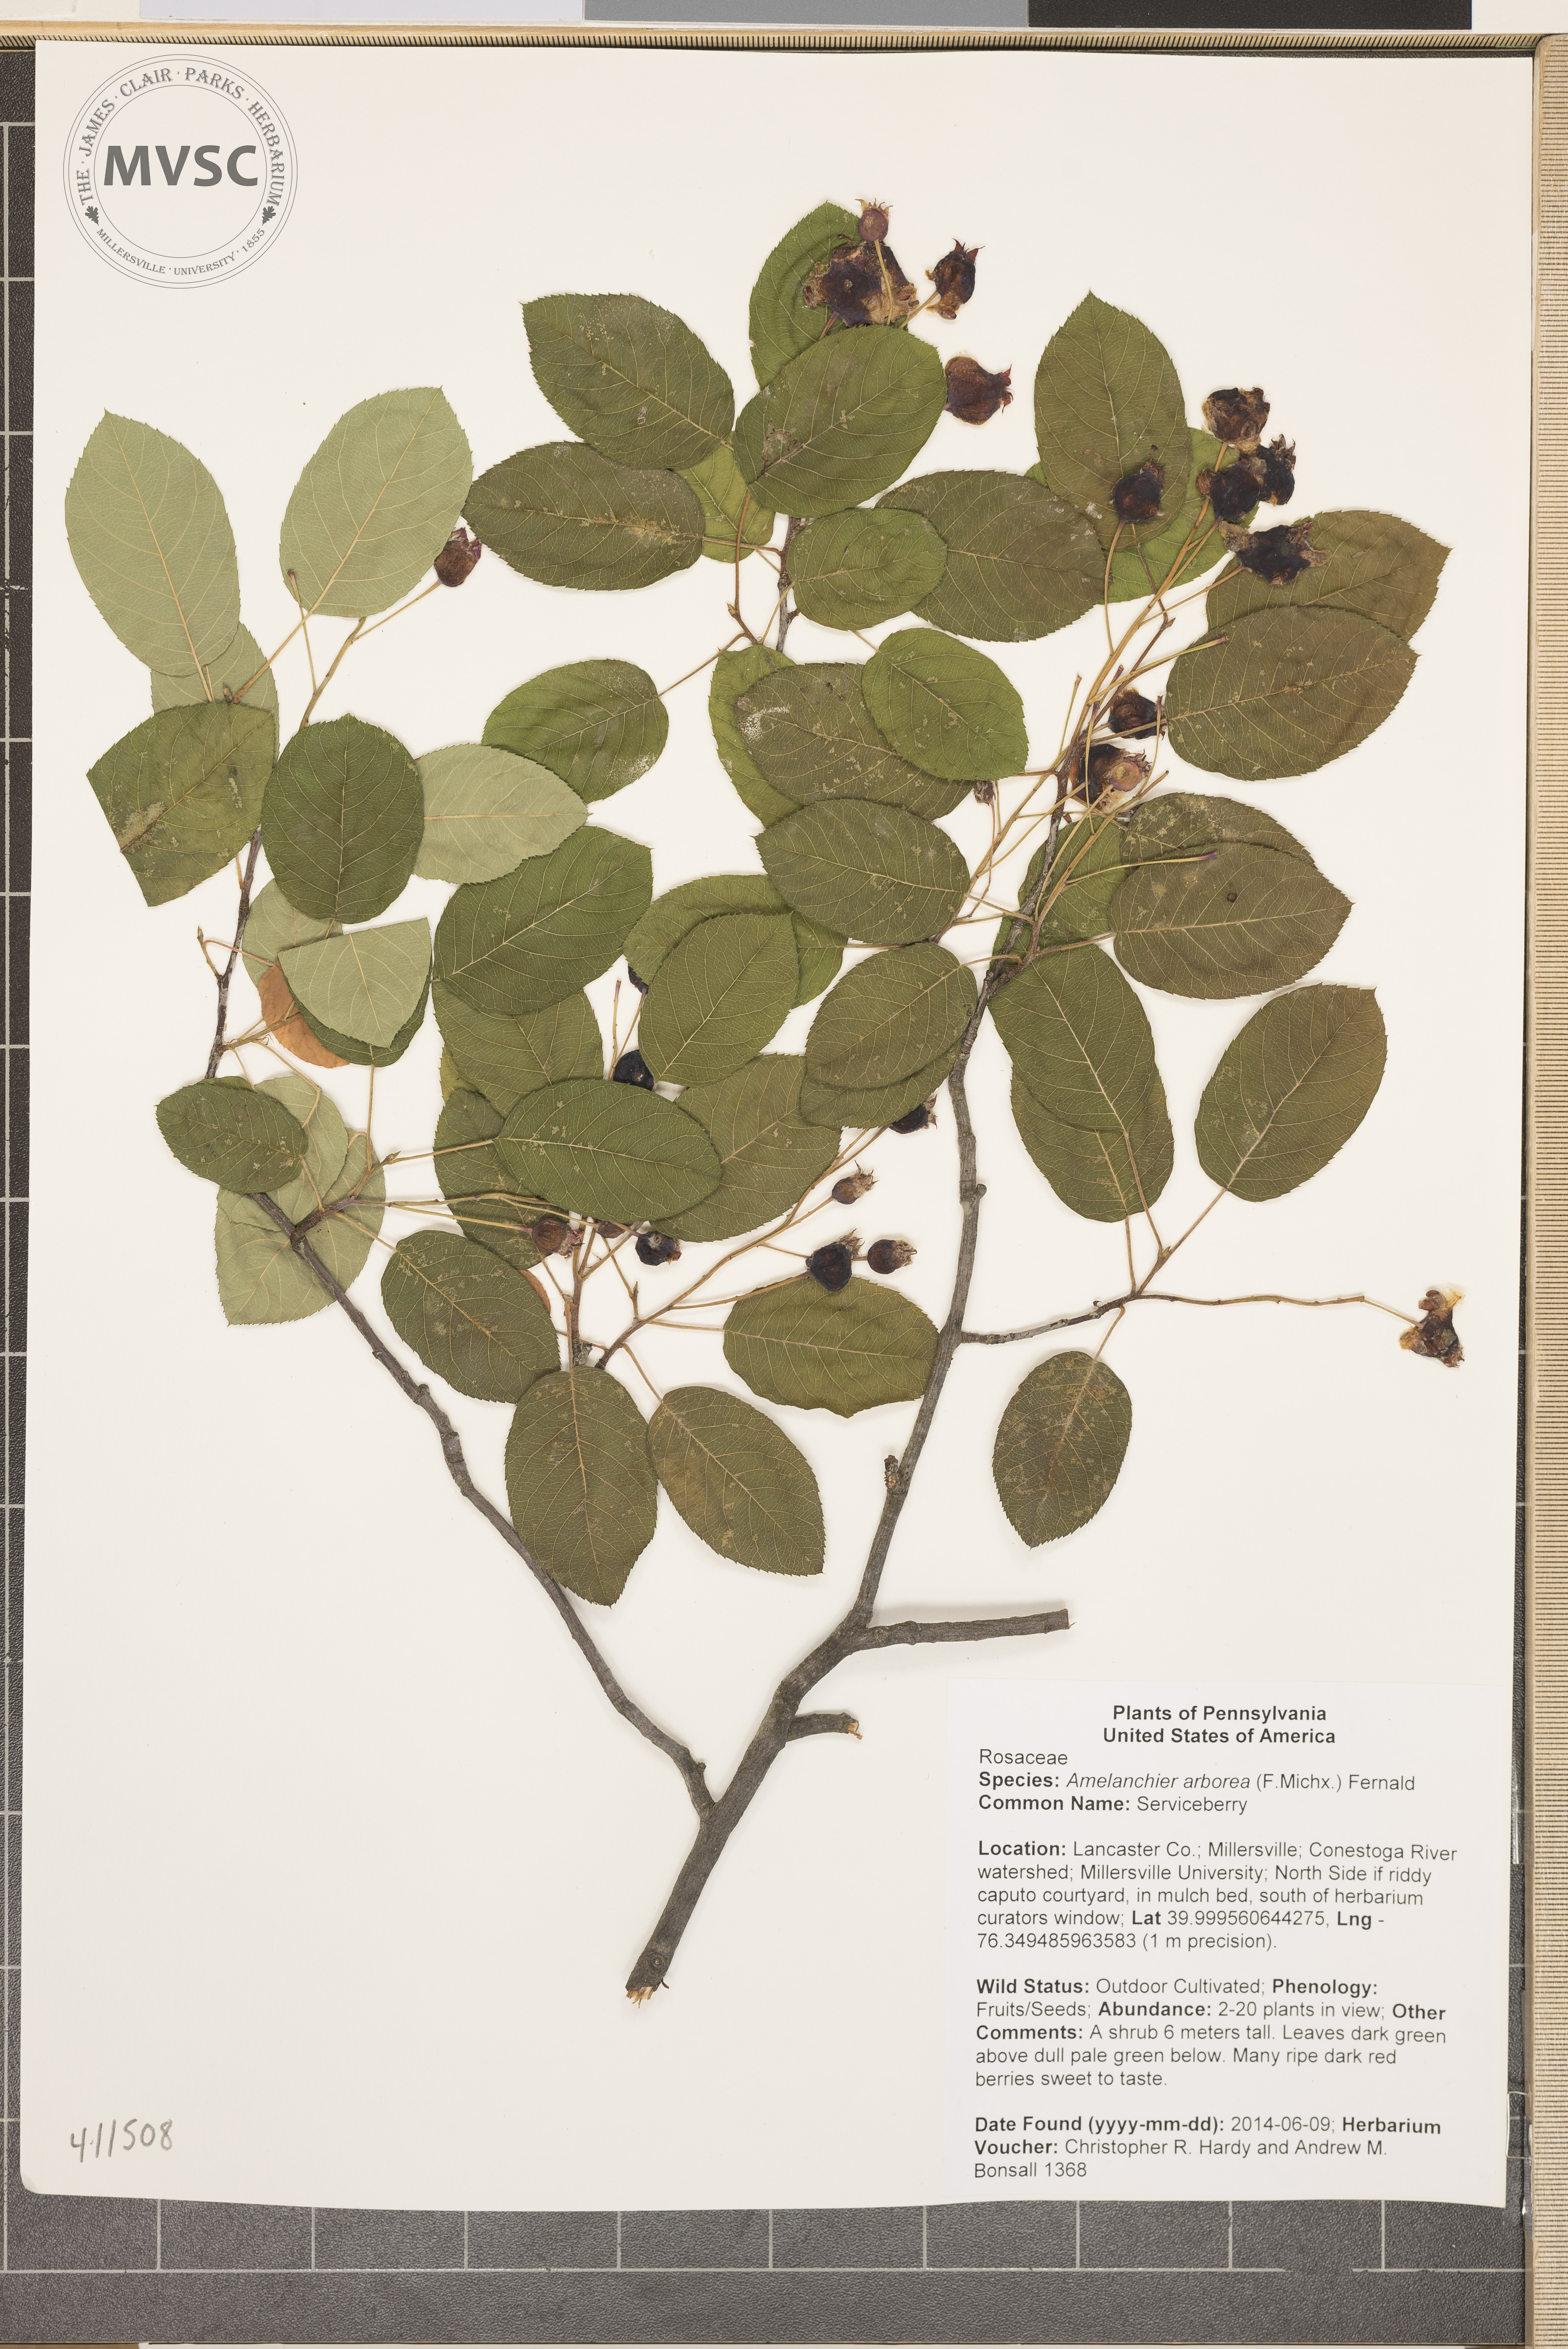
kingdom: Plantae
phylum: Tracheophyta
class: Magnoliopsida
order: Rosales
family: Rosaceae
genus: Amelanchier
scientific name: Amelanchier arborea
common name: Serviceberry
